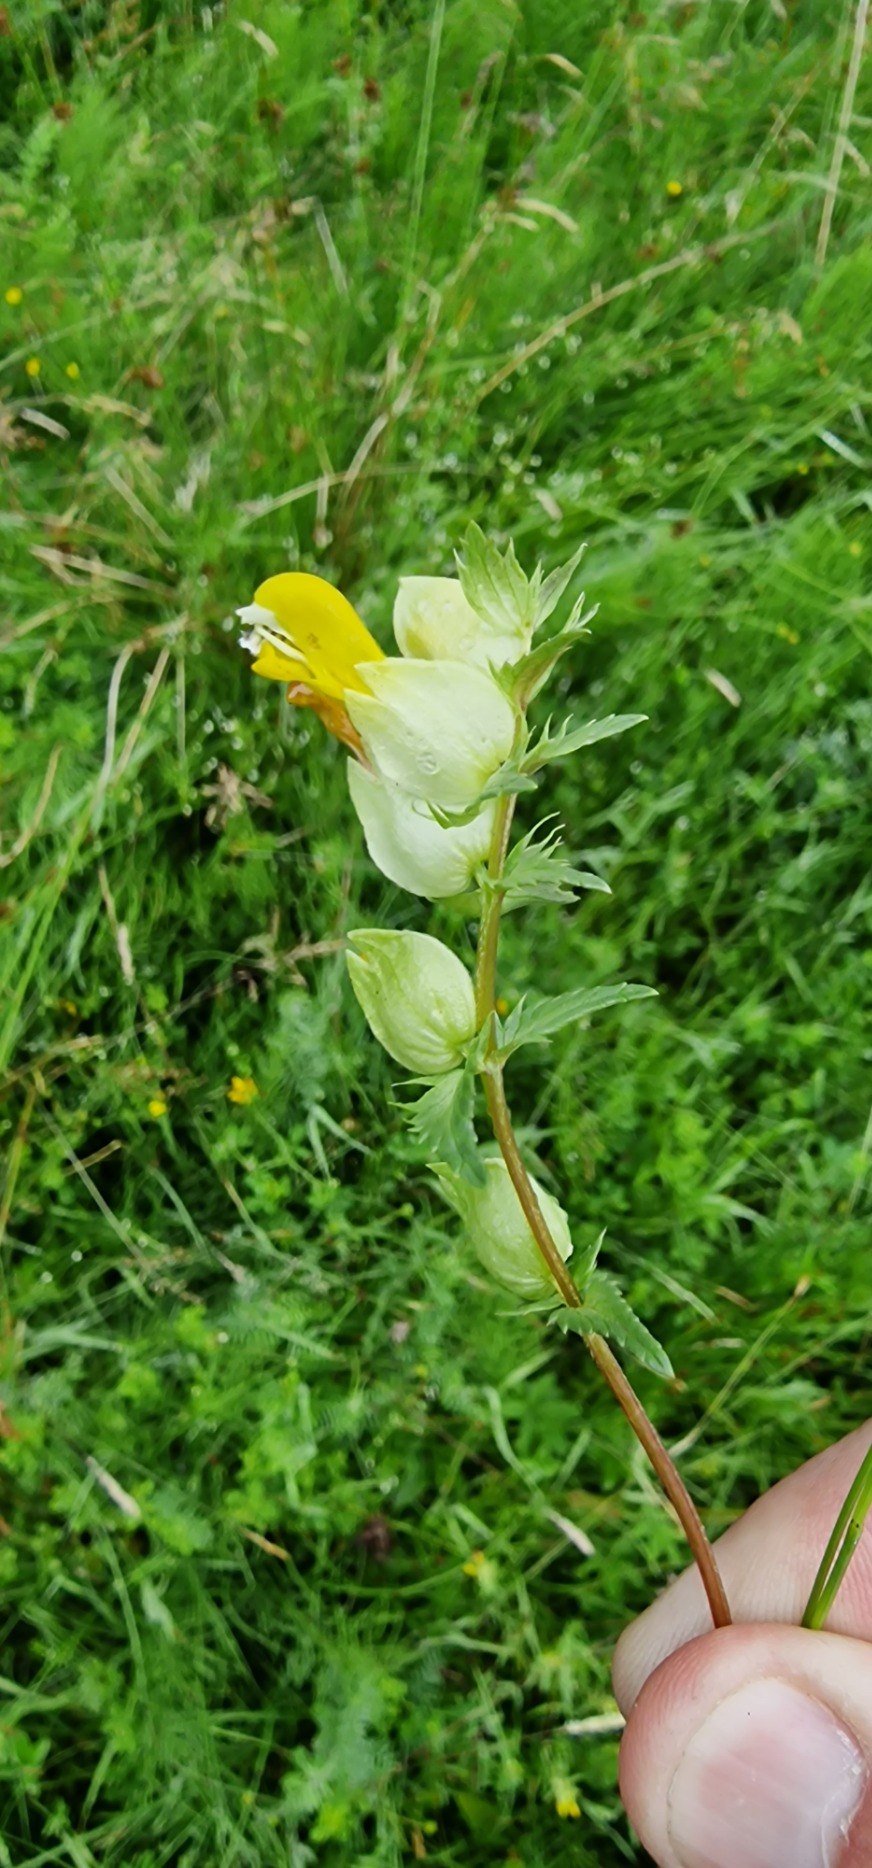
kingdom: Plantae
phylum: Tracheophyta
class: Magnoliopsida
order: Lamiales
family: Orobanchaceae
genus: Rhinanthus
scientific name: Rhinanthus
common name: Stor skjaller
